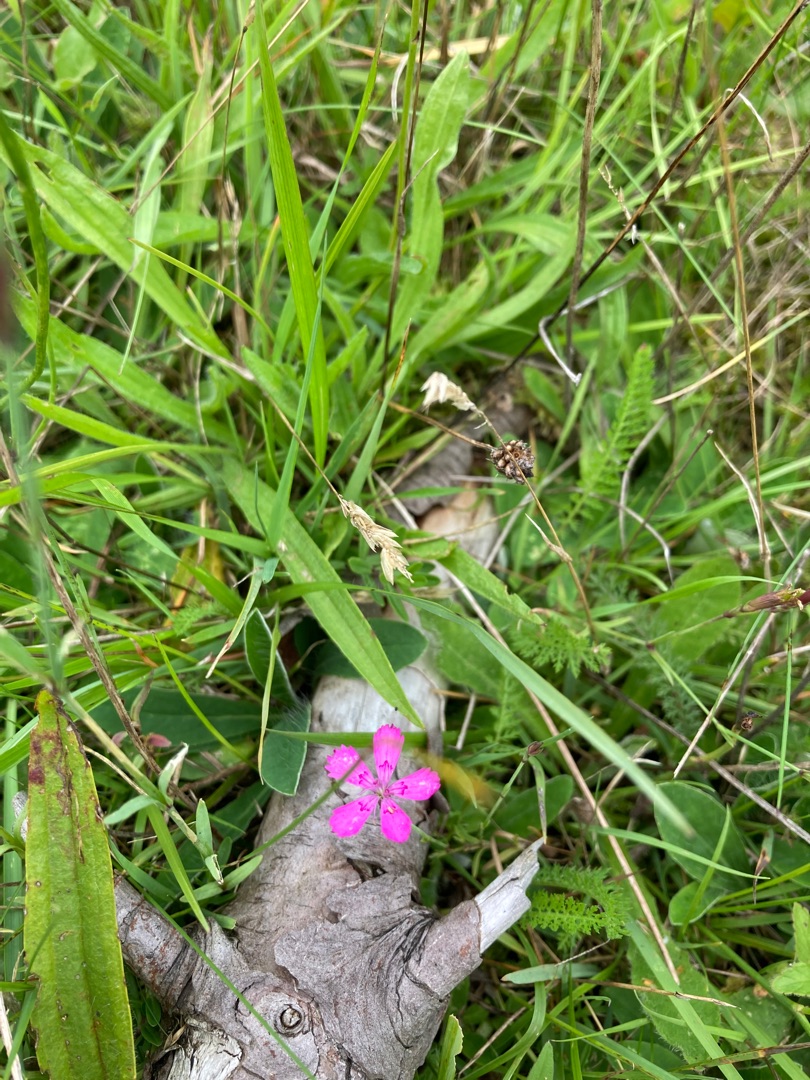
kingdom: Plantae
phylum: Tracheophyta
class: Magnoliopsida
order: Caryophyllales
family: Caryophyllaceae
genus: Dianthus
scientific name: Dianthus deltoides
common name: Bakke-nellike
